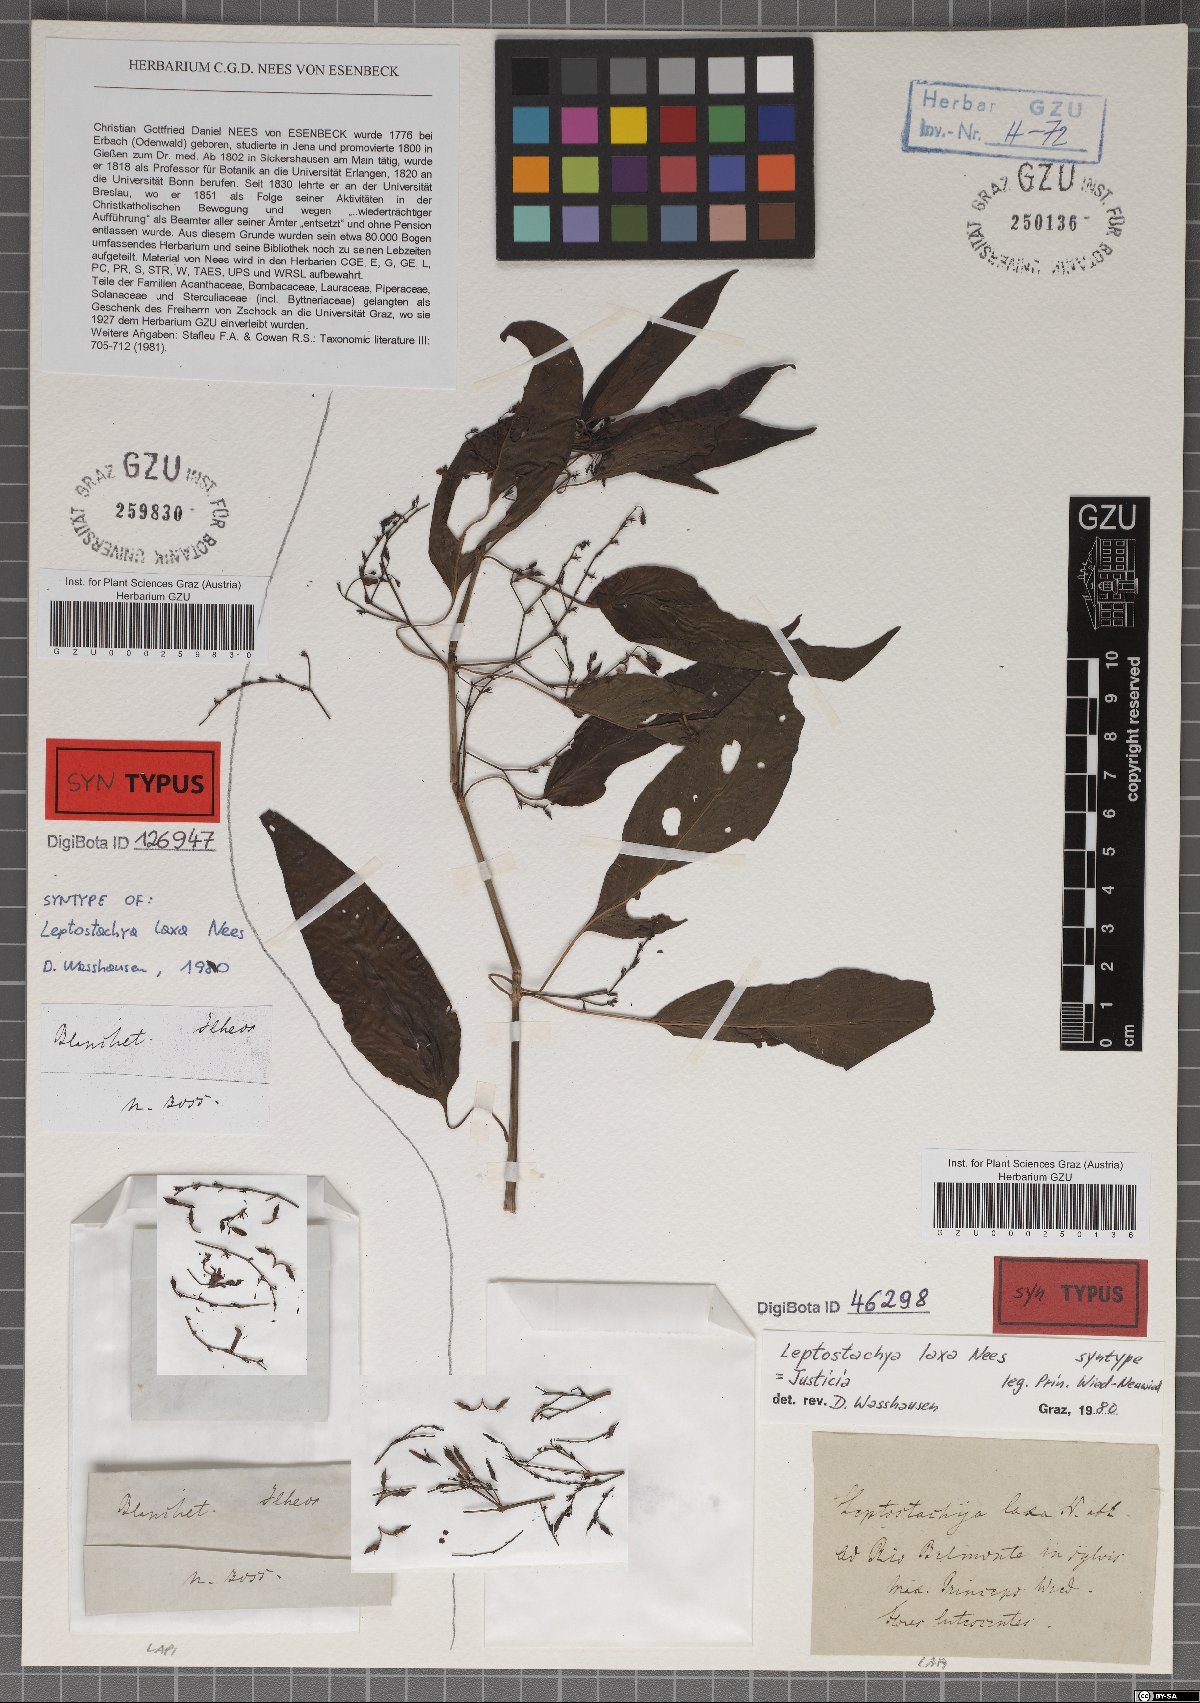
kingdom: Plantae
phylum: Tracheophyta
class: Magnoliopsida
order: Lamiales
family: Acanthaceae
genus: Justicia
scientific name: Justicia flosculosa
